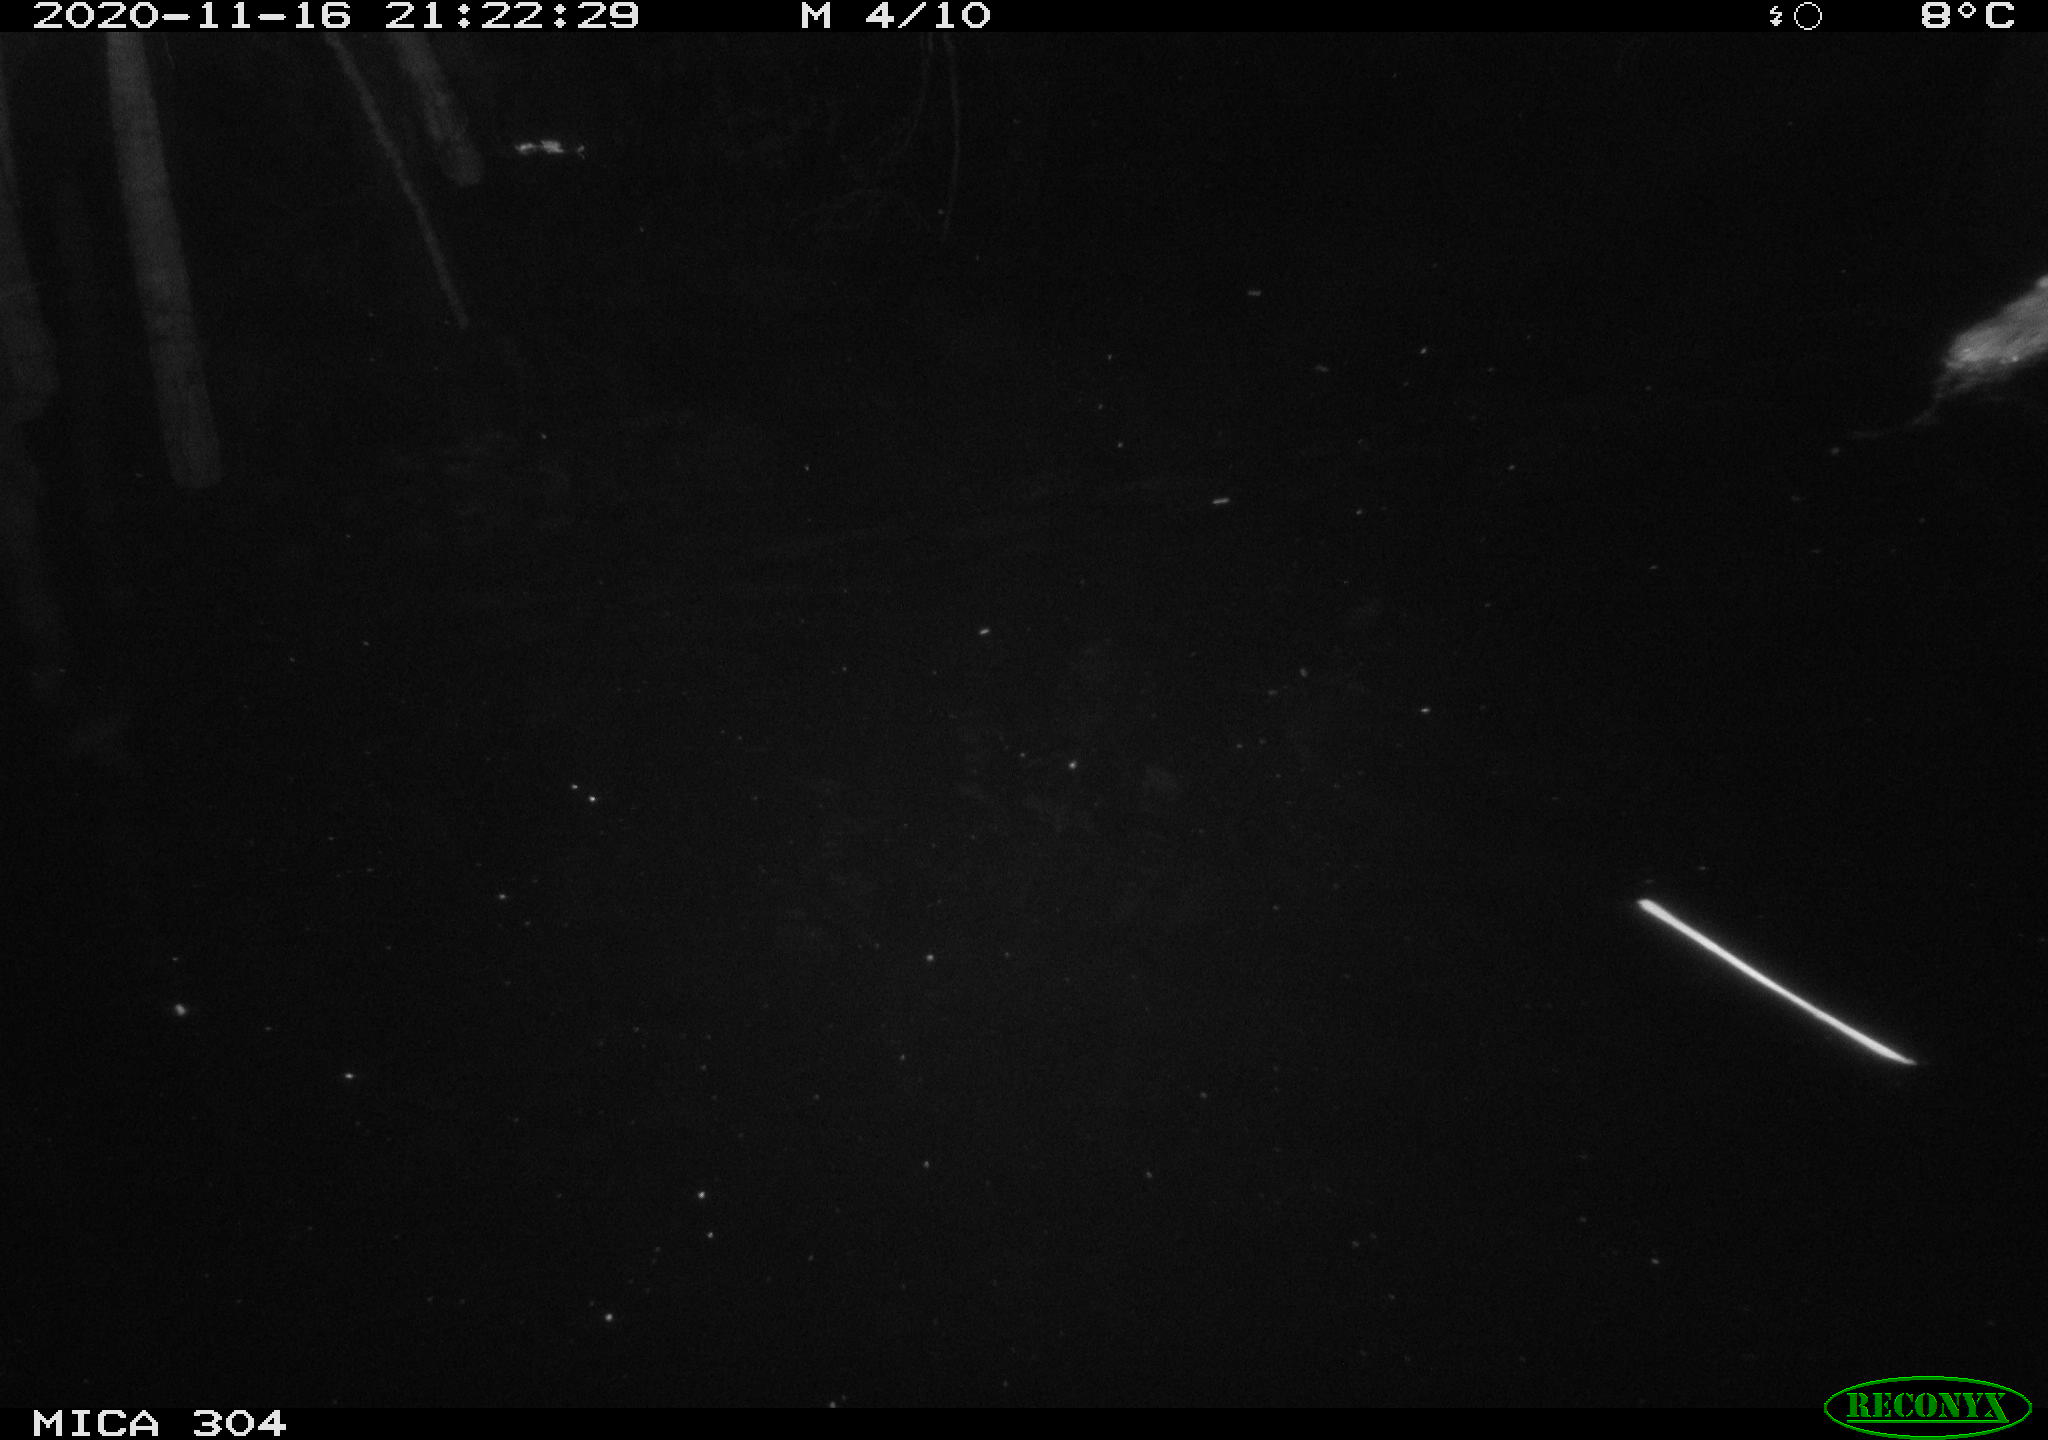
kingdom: Animalia
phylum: Chordata
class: Mammalia
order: Rodentia
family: Muridae
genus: Rattus
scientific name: Rattus norvegicus
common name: Brown rat
